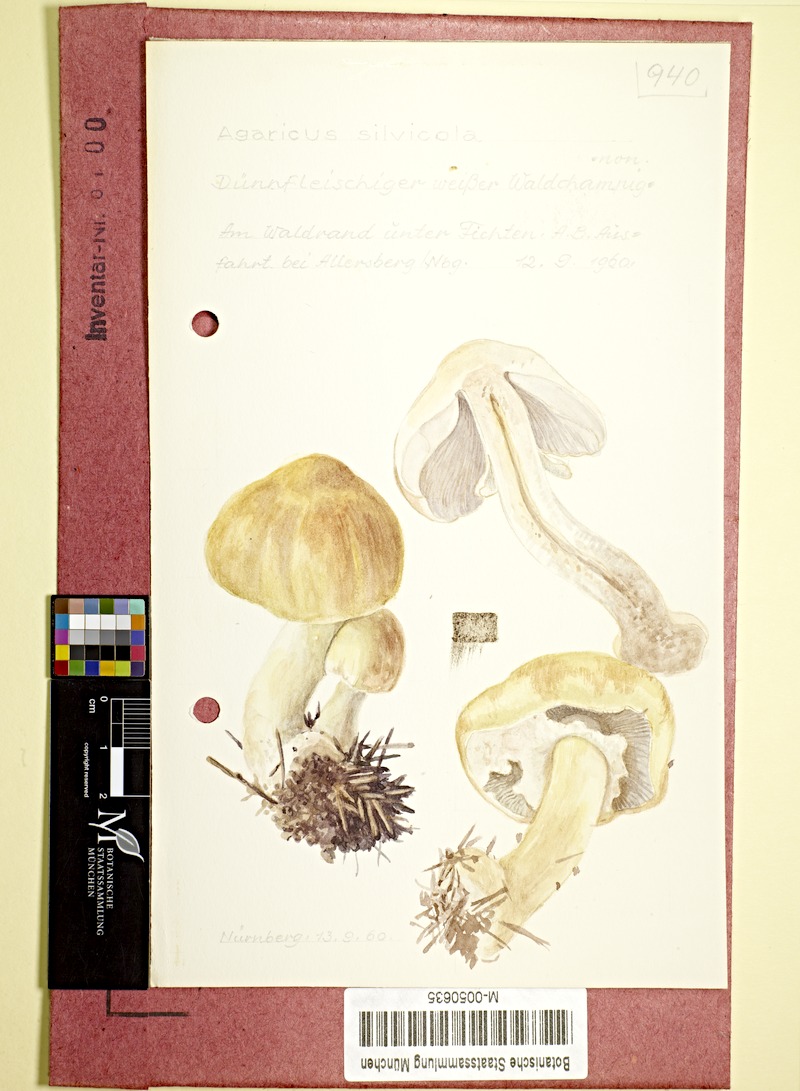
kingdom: Fungi
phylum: Basidiomycota
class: Agaricomycetes
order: Agaricales
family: Agaricaceae
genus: Agaricus
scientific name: Agaricus sylvicola
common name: Wood mushroom
